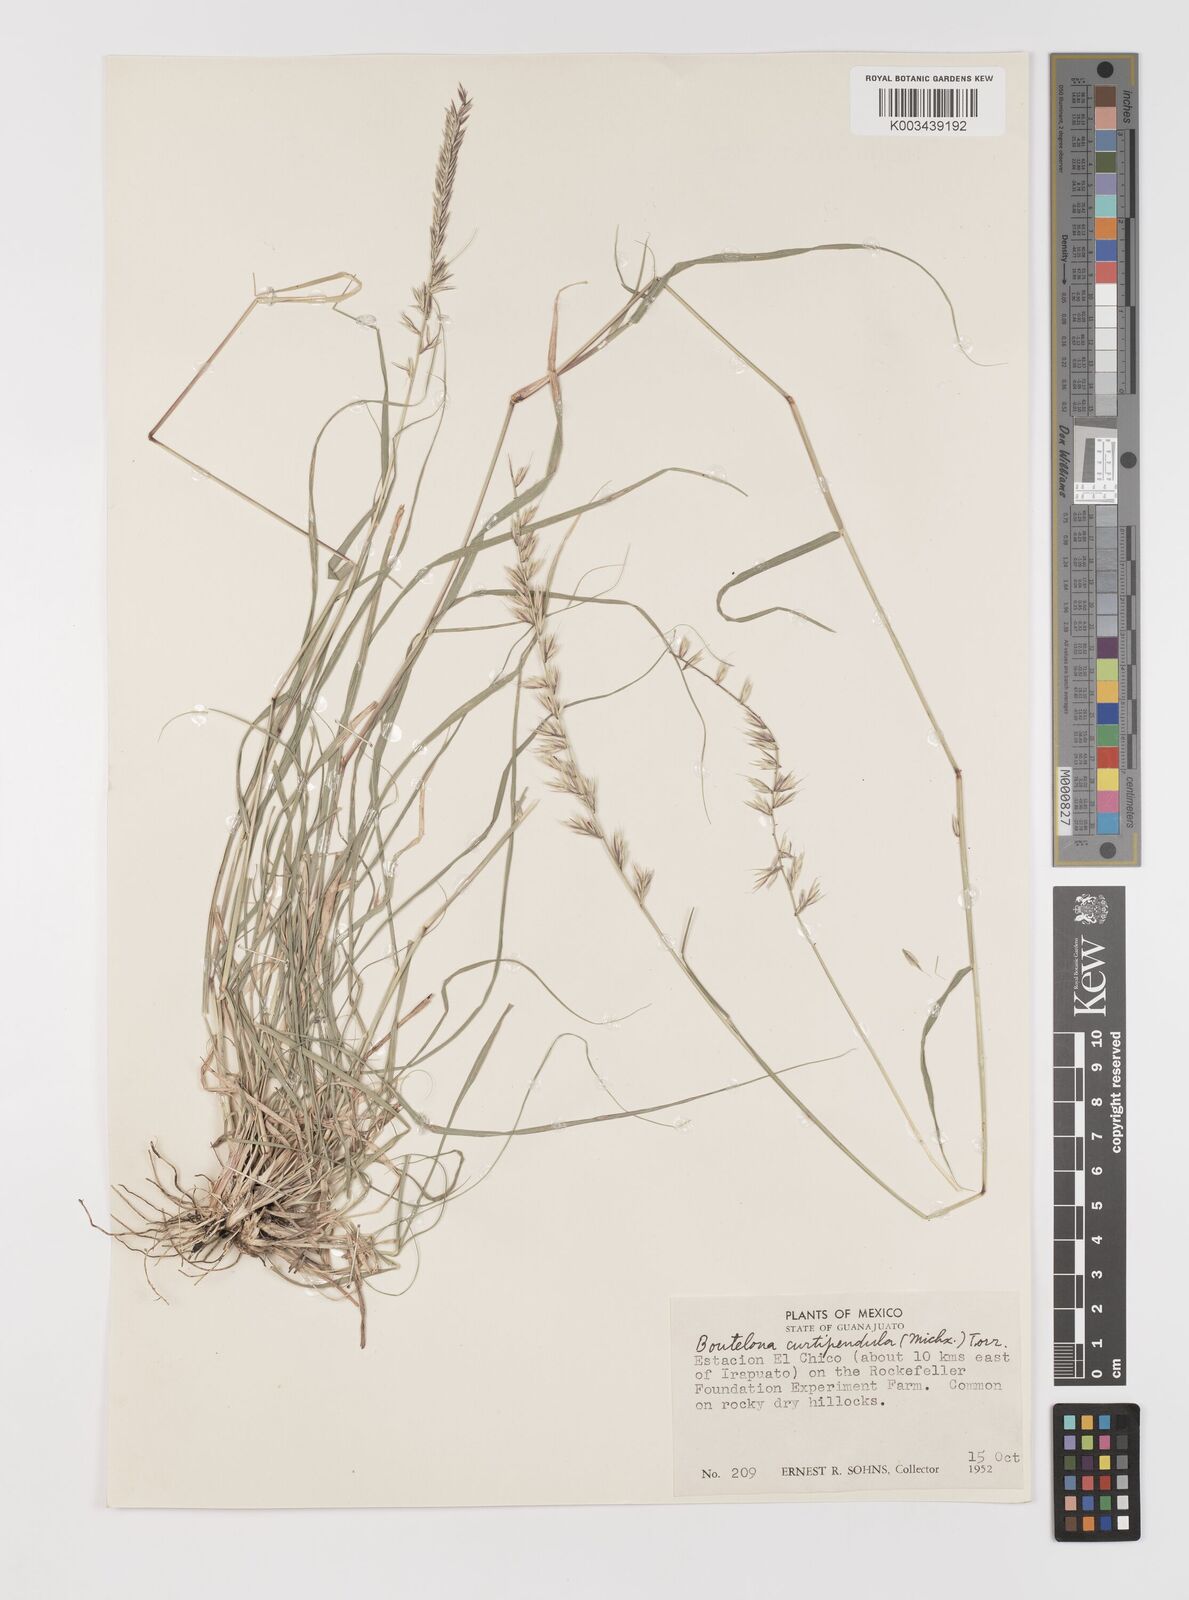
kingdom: Plantae
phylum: Tracheophyta
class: Liliopsida
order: Poales
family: Poaceae
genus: Bouteloua
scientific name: Bouteloua curtipendula
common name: Side-oats grama
